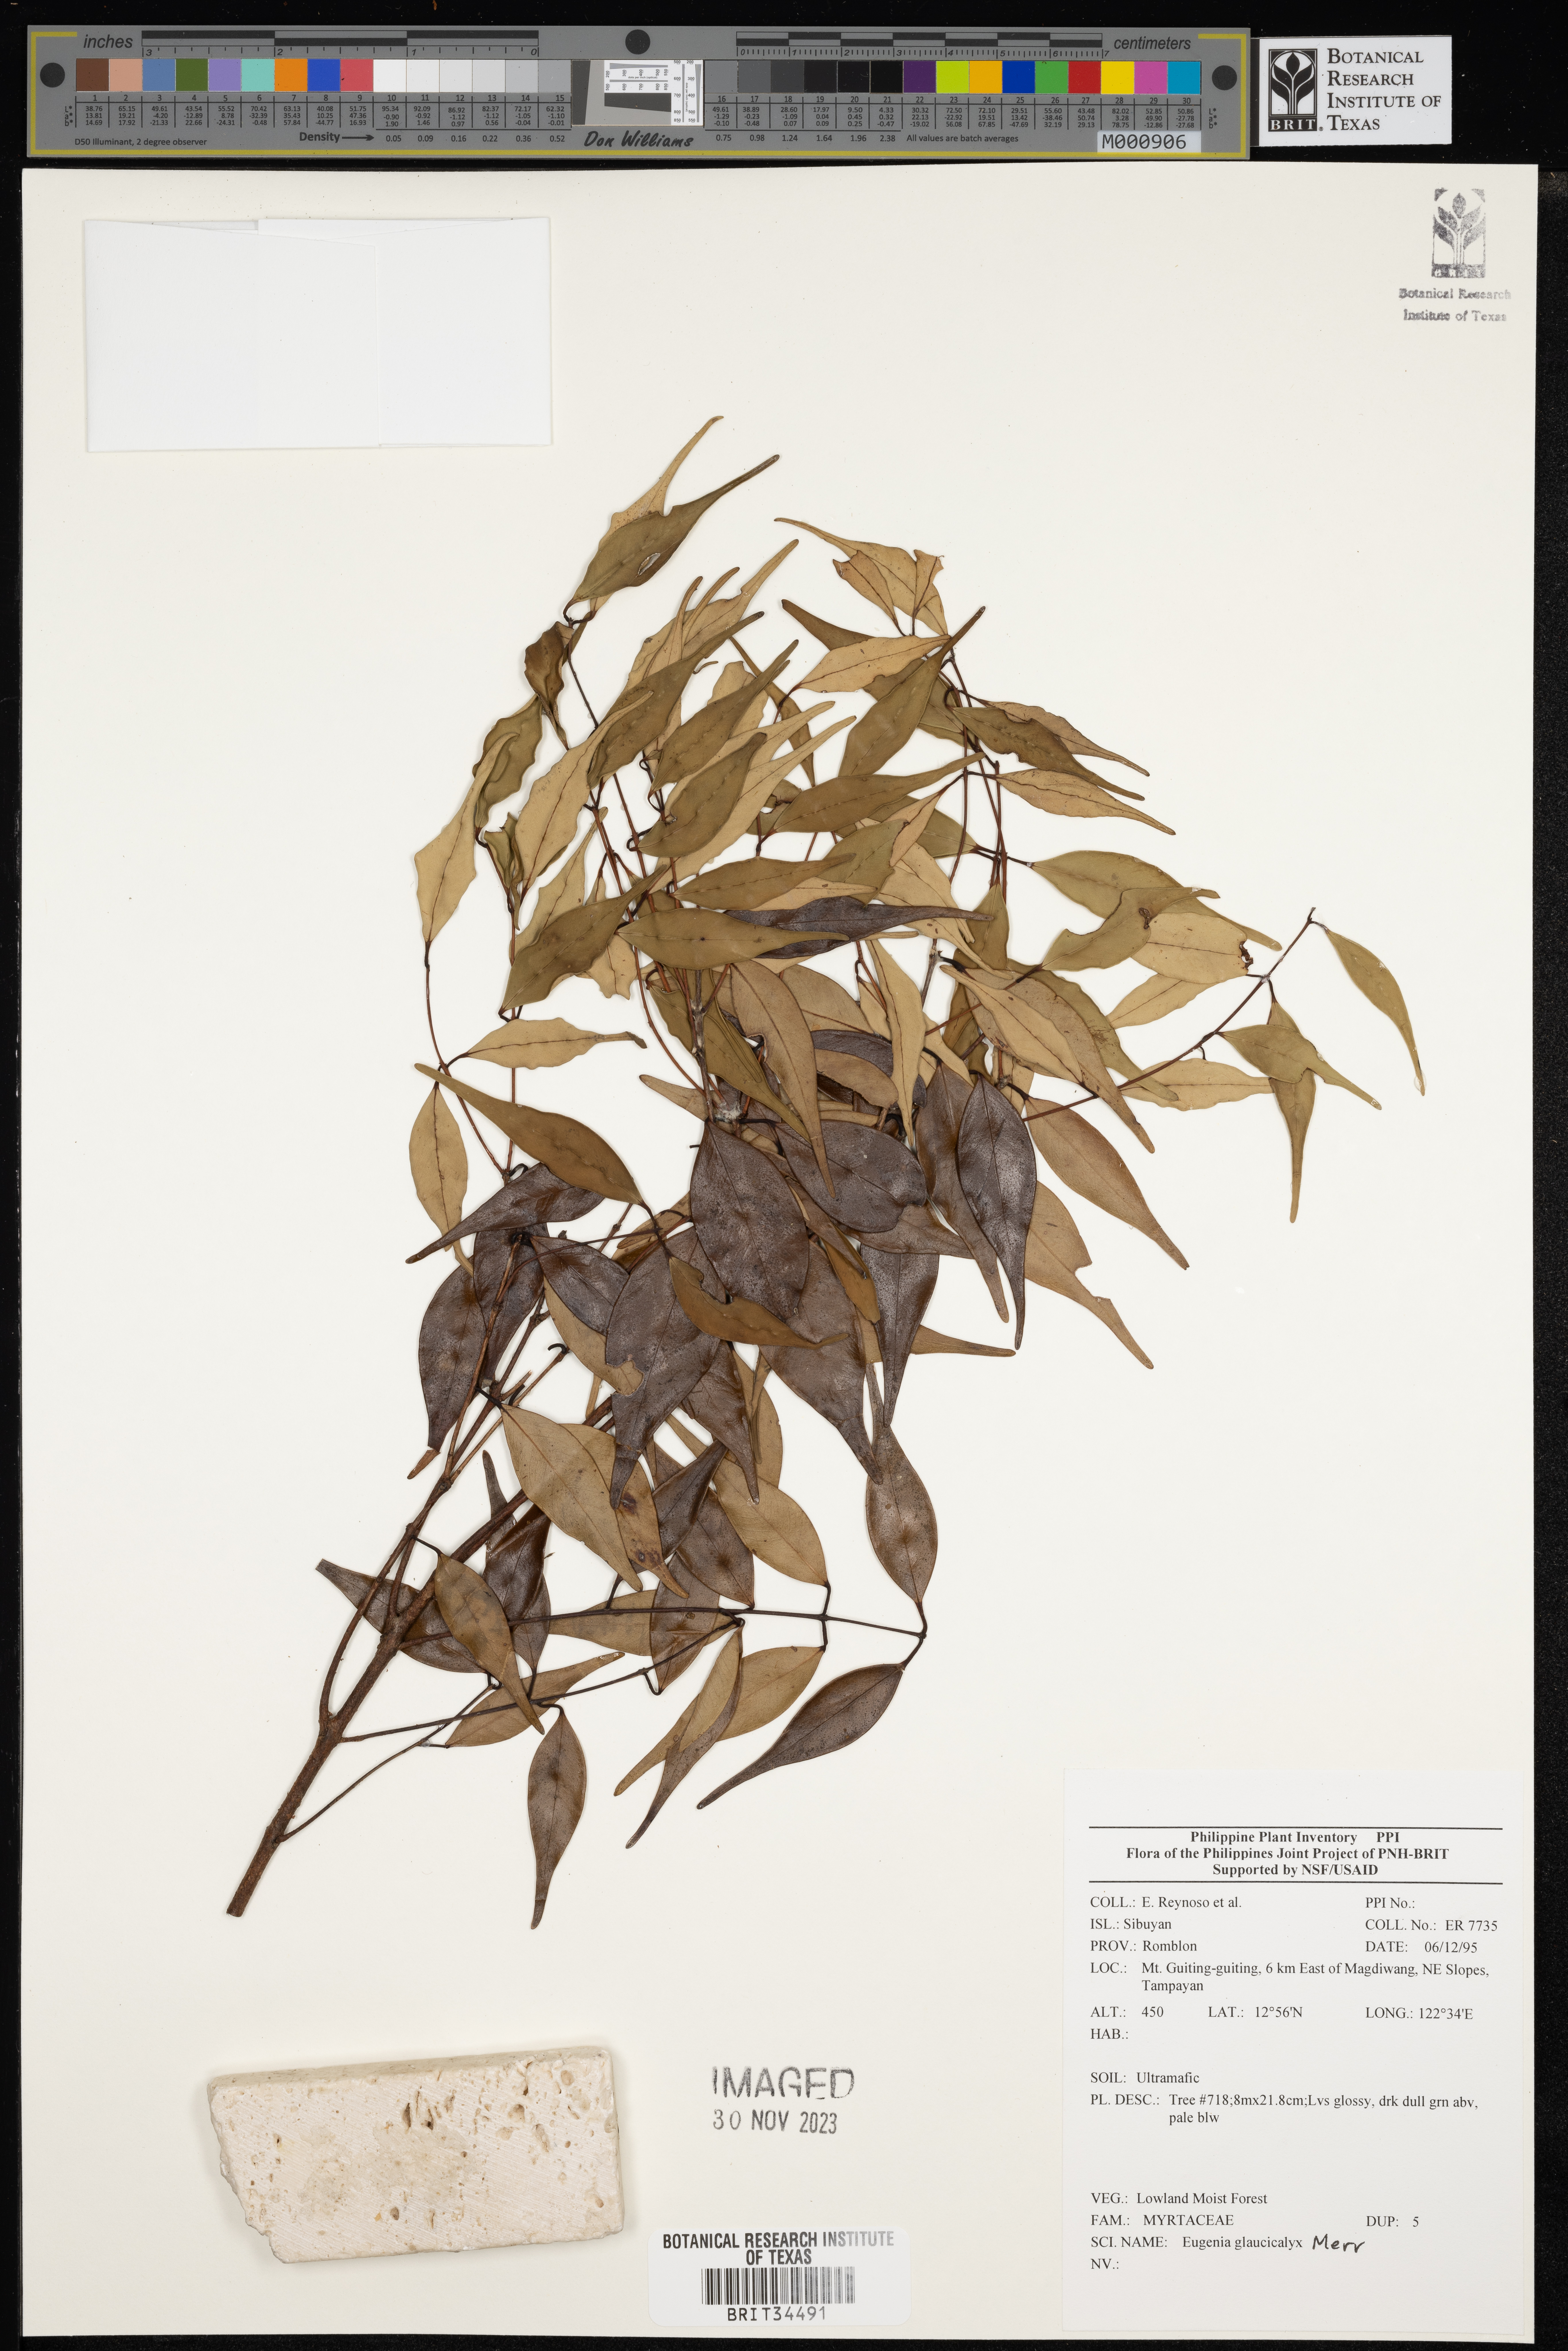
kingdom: Plantae
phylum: Tracheophyta
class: Magnoliopsida
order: Myrtales
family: Myrtaceae
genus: Eugenia
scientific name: Eugenia
